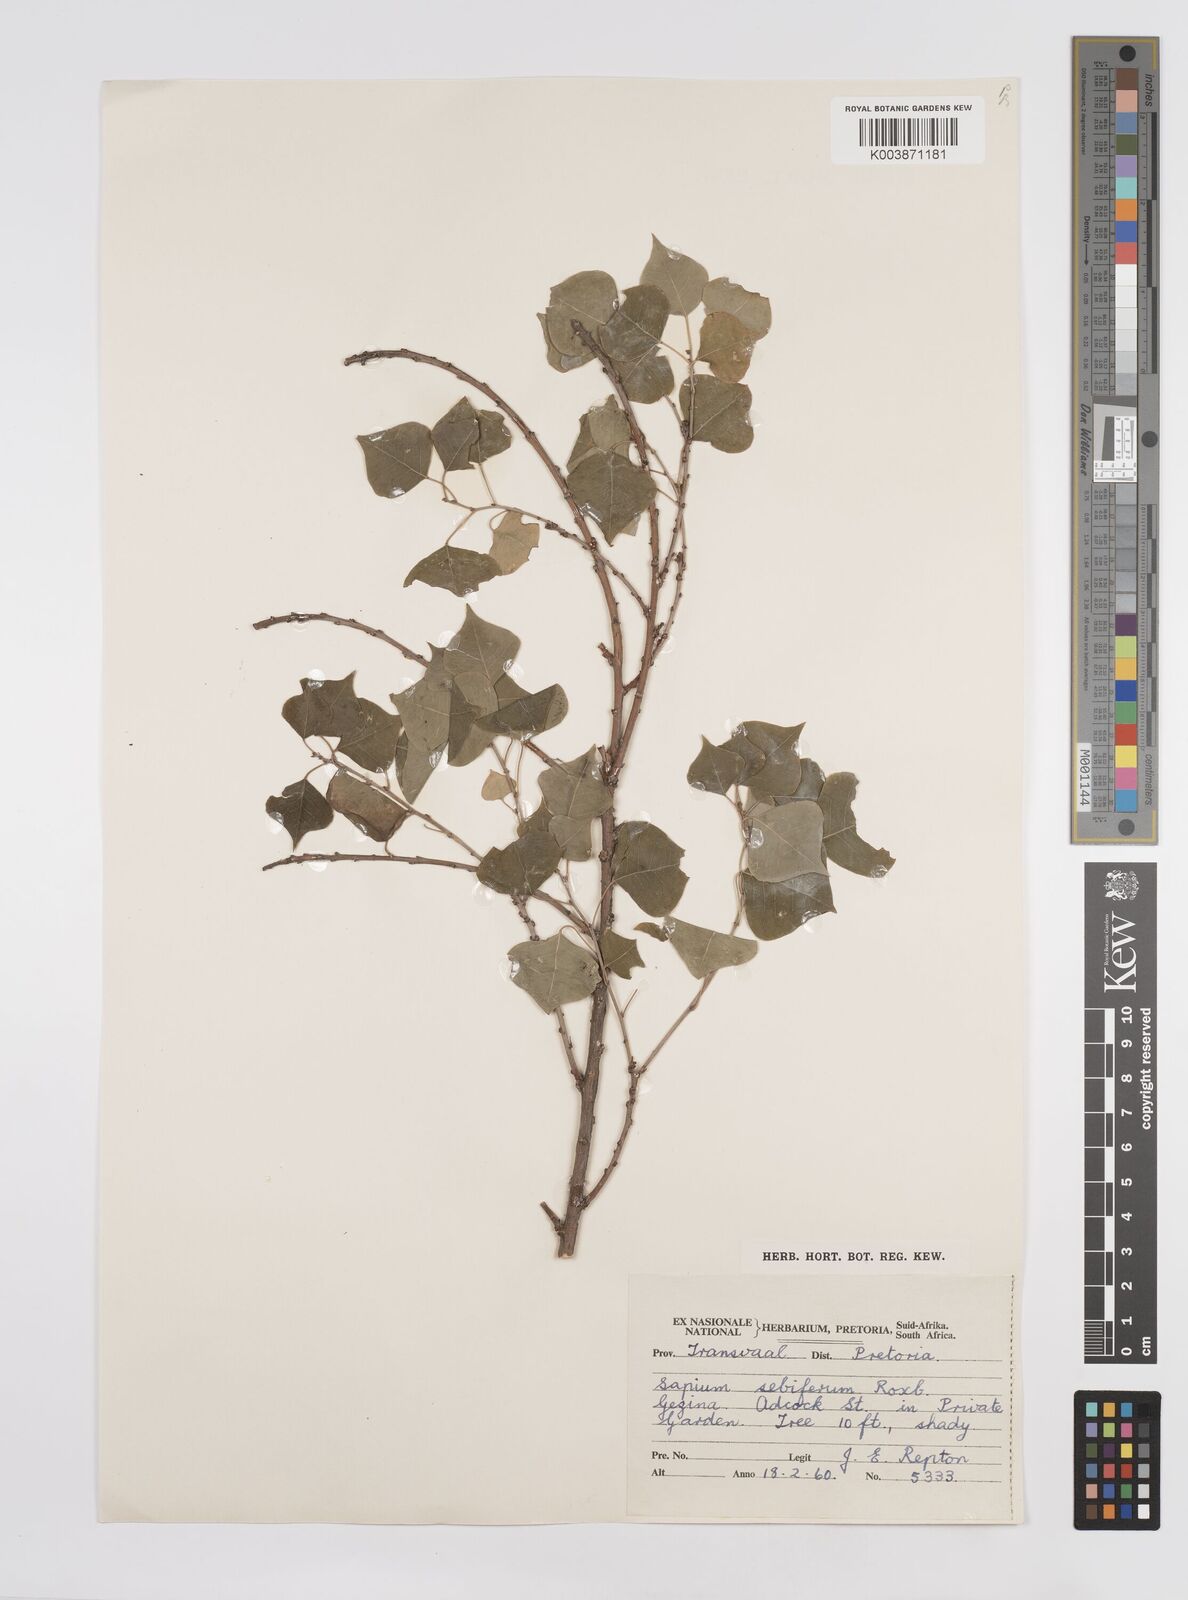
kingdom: Plantae
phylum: Tracheophyta
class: Magnoliopsida
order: Malpighiales
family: Euphorbiaceae
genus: Triadica
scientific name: Triadica sebifera
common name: Chinese tallow
